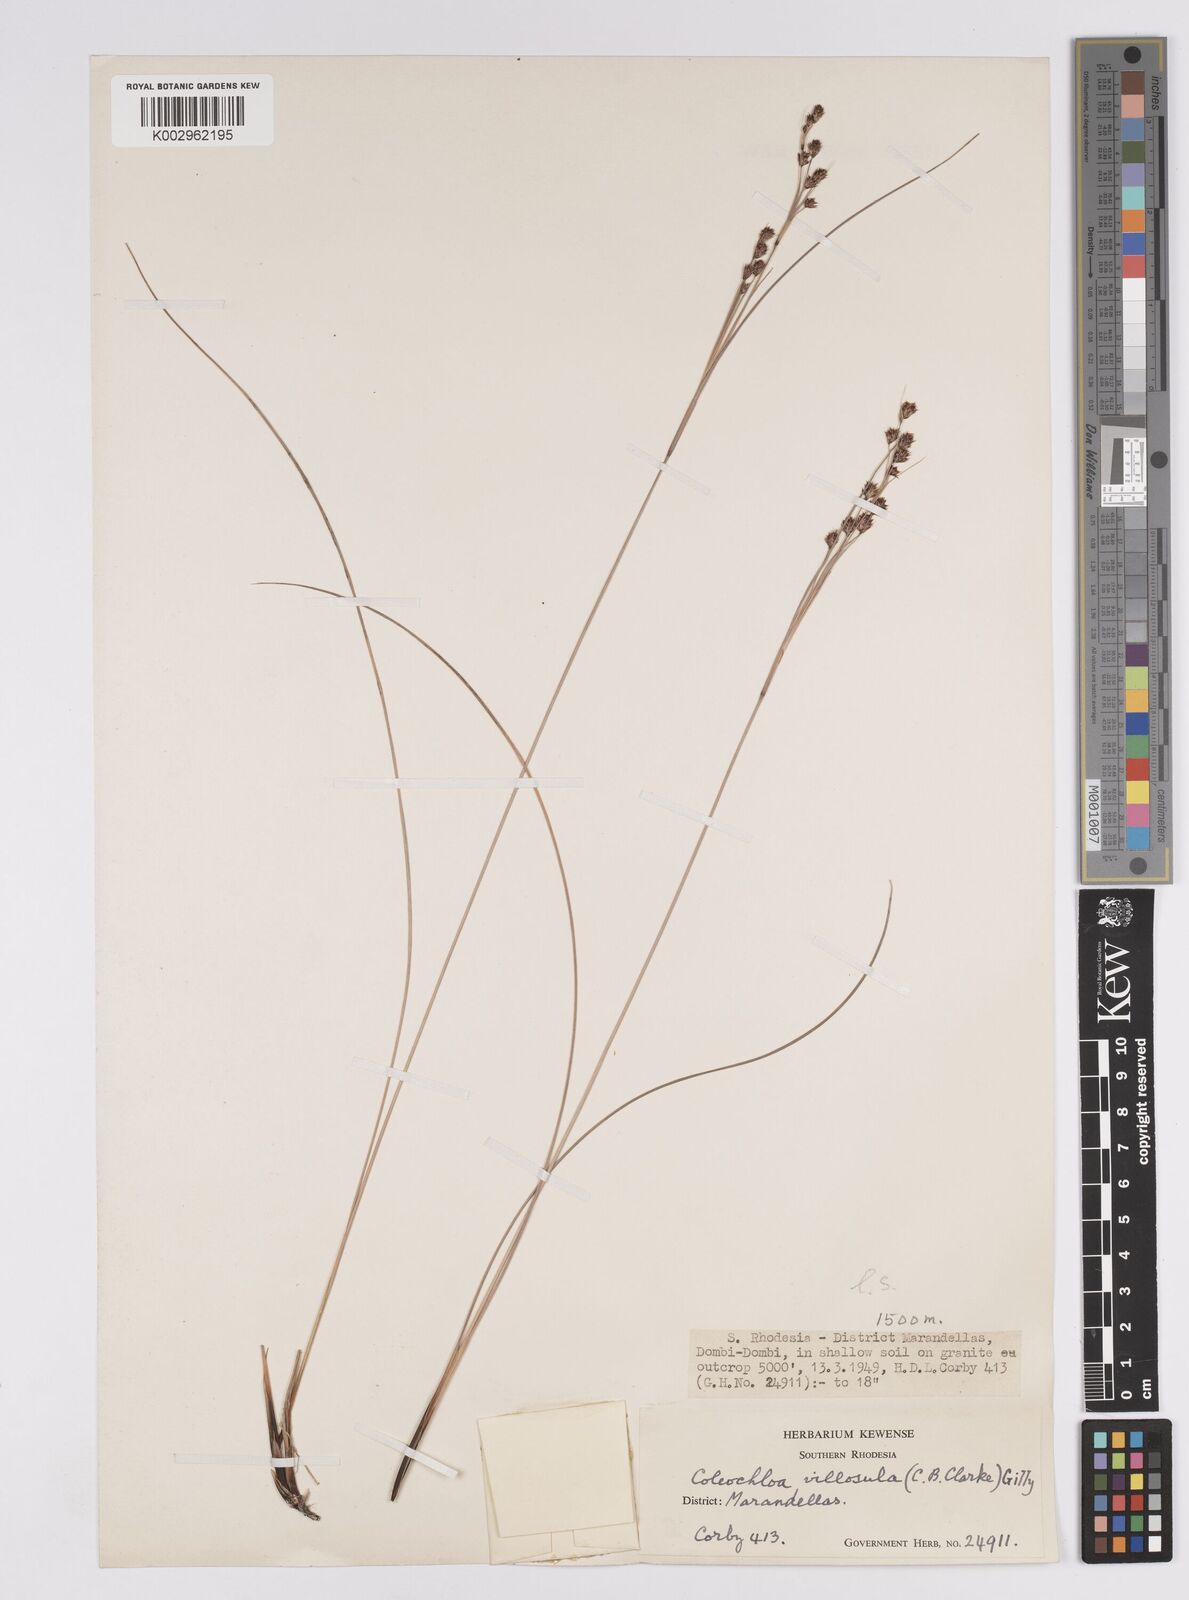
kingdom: Plantae
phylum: Tracheophyta
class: Liliopsida
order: Poales
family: Cyperaceae
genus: Coleochloa
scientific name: Coleochloa setifera
